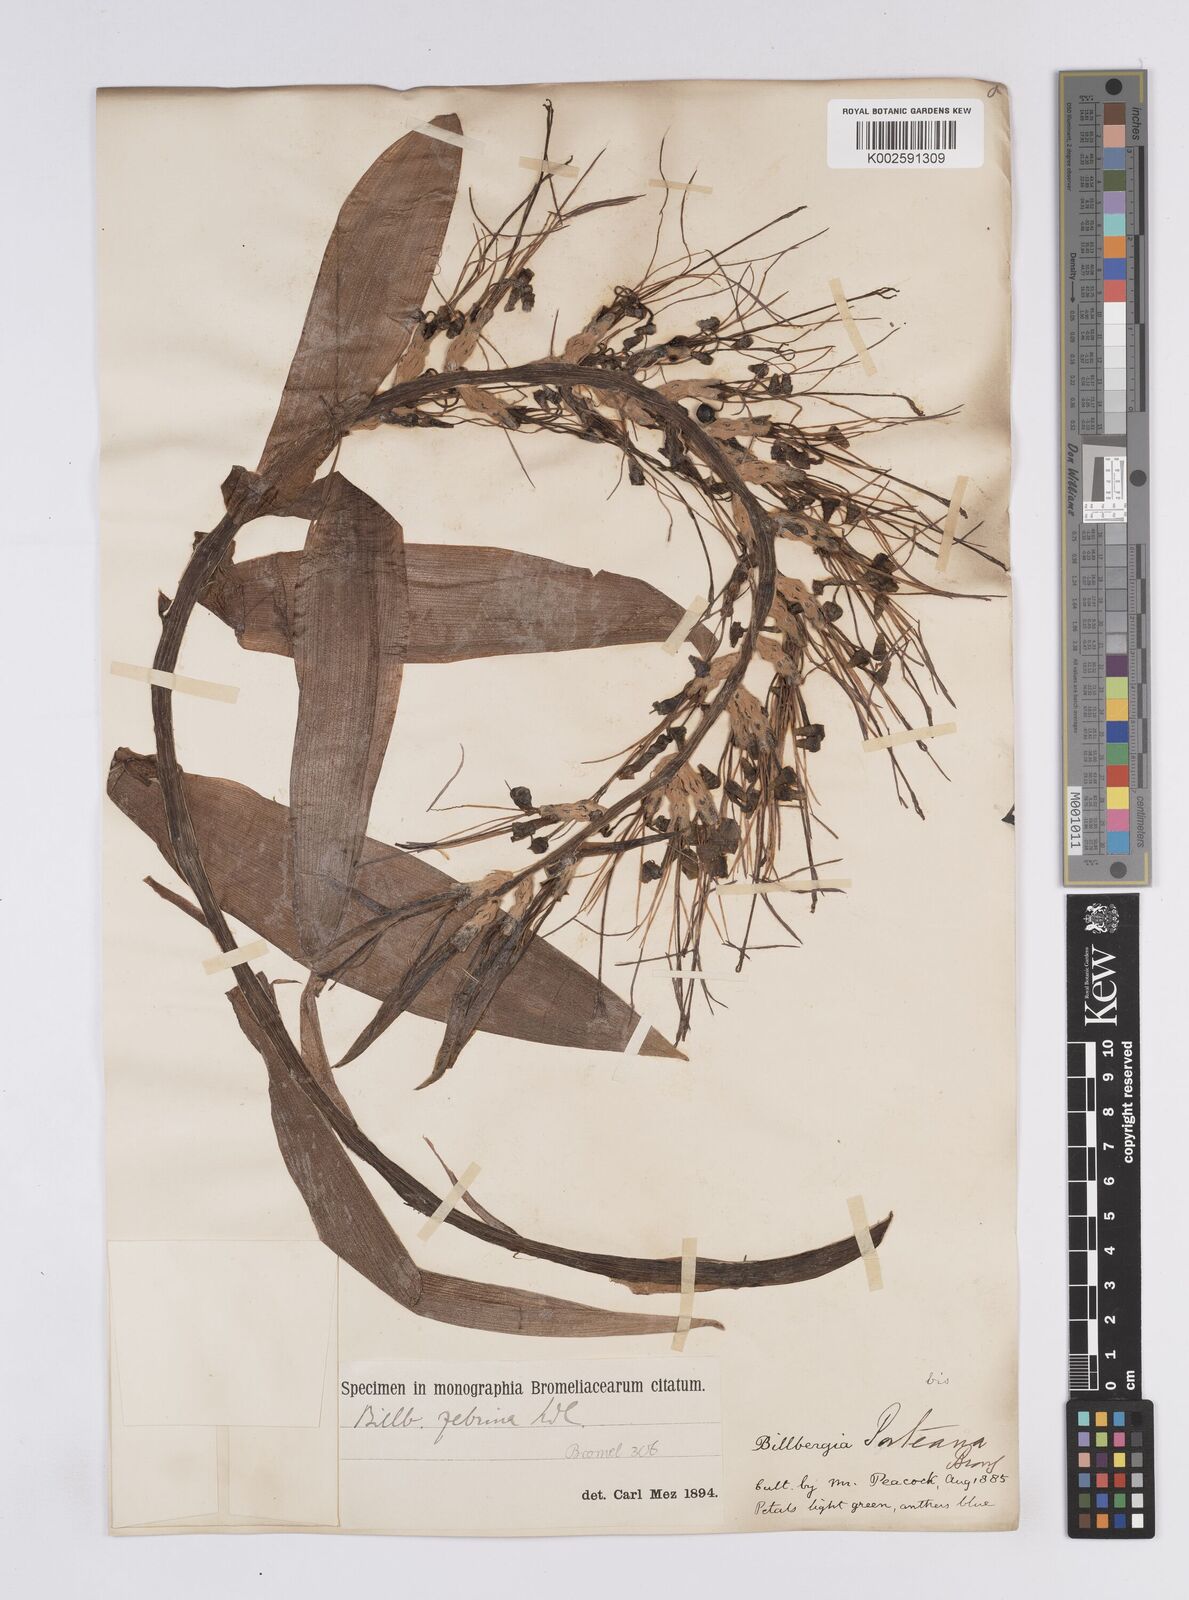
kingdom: Plantae
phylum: Tracheophyta
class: Liliopsida
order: Poales
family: Bromeliaceae
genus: Billbergia
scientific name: Billbergia zebrina
